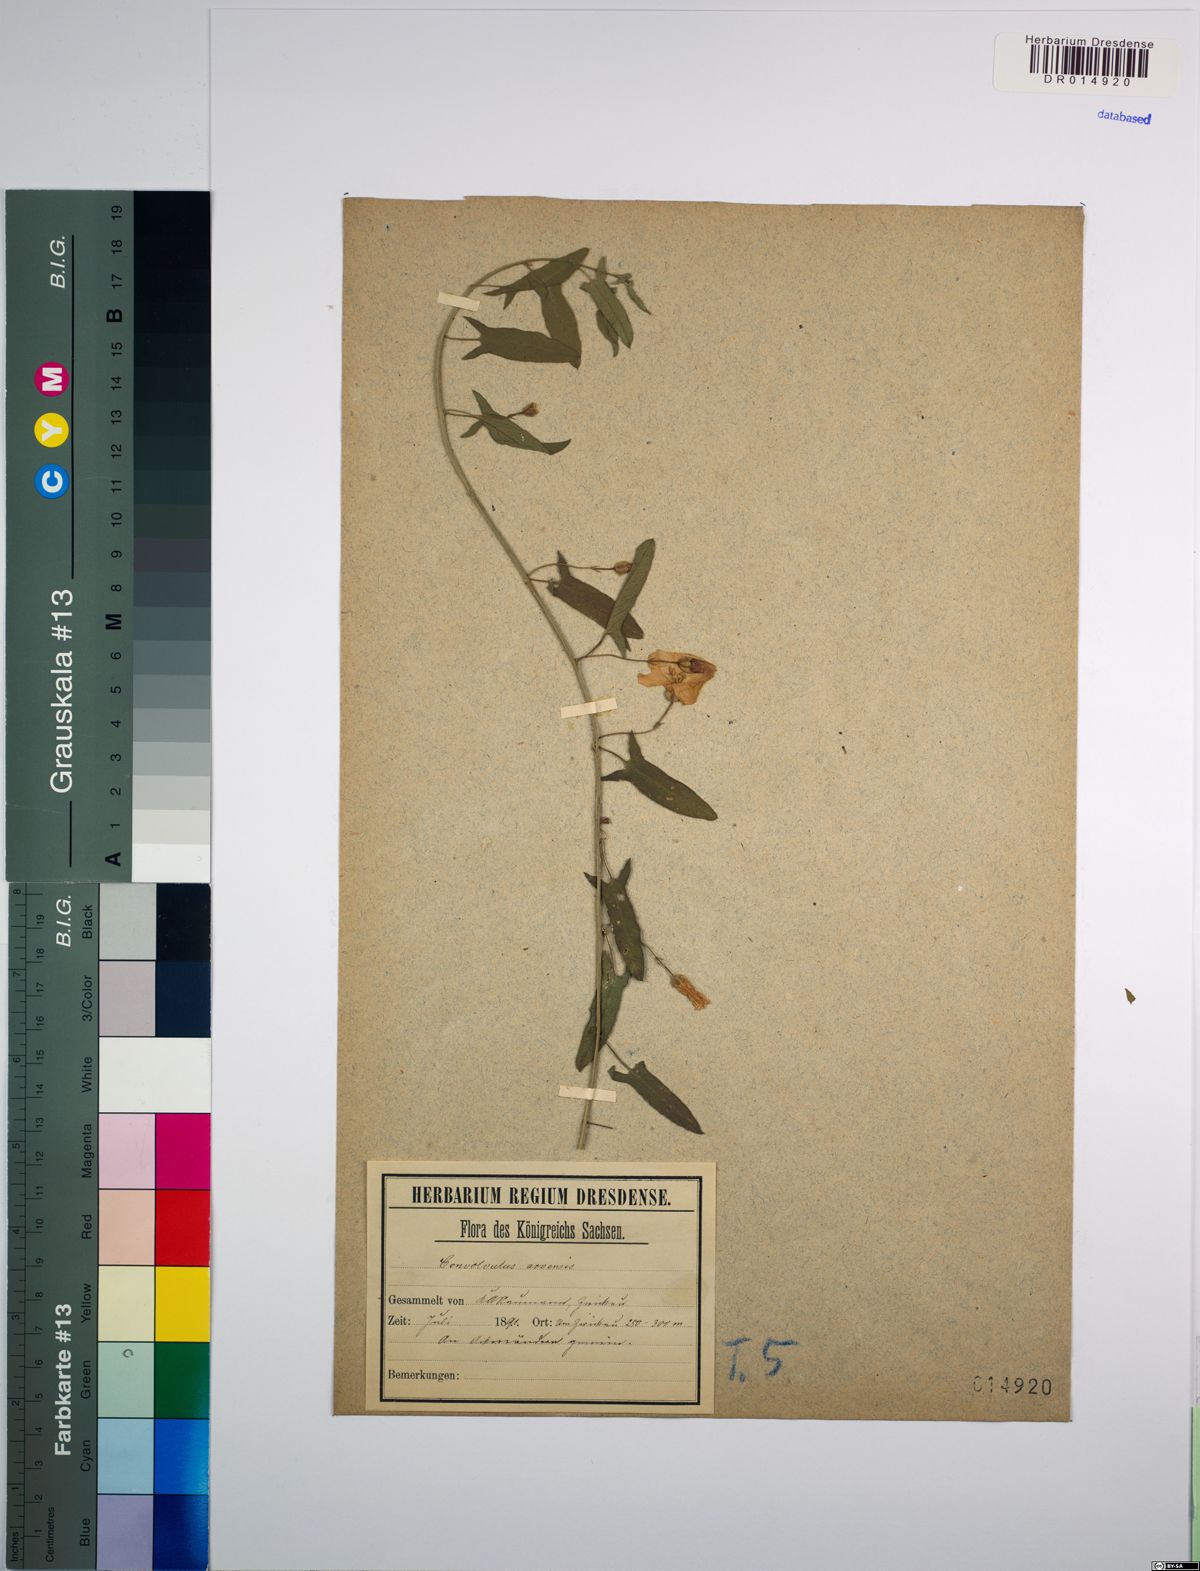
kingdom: Plantae
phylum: Tracheophyta
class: Magnoliopsida
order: Solanales
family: Convolvulaceae
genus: Convolvulus
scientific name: Convolvulus arvensis
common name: Field bindweed
